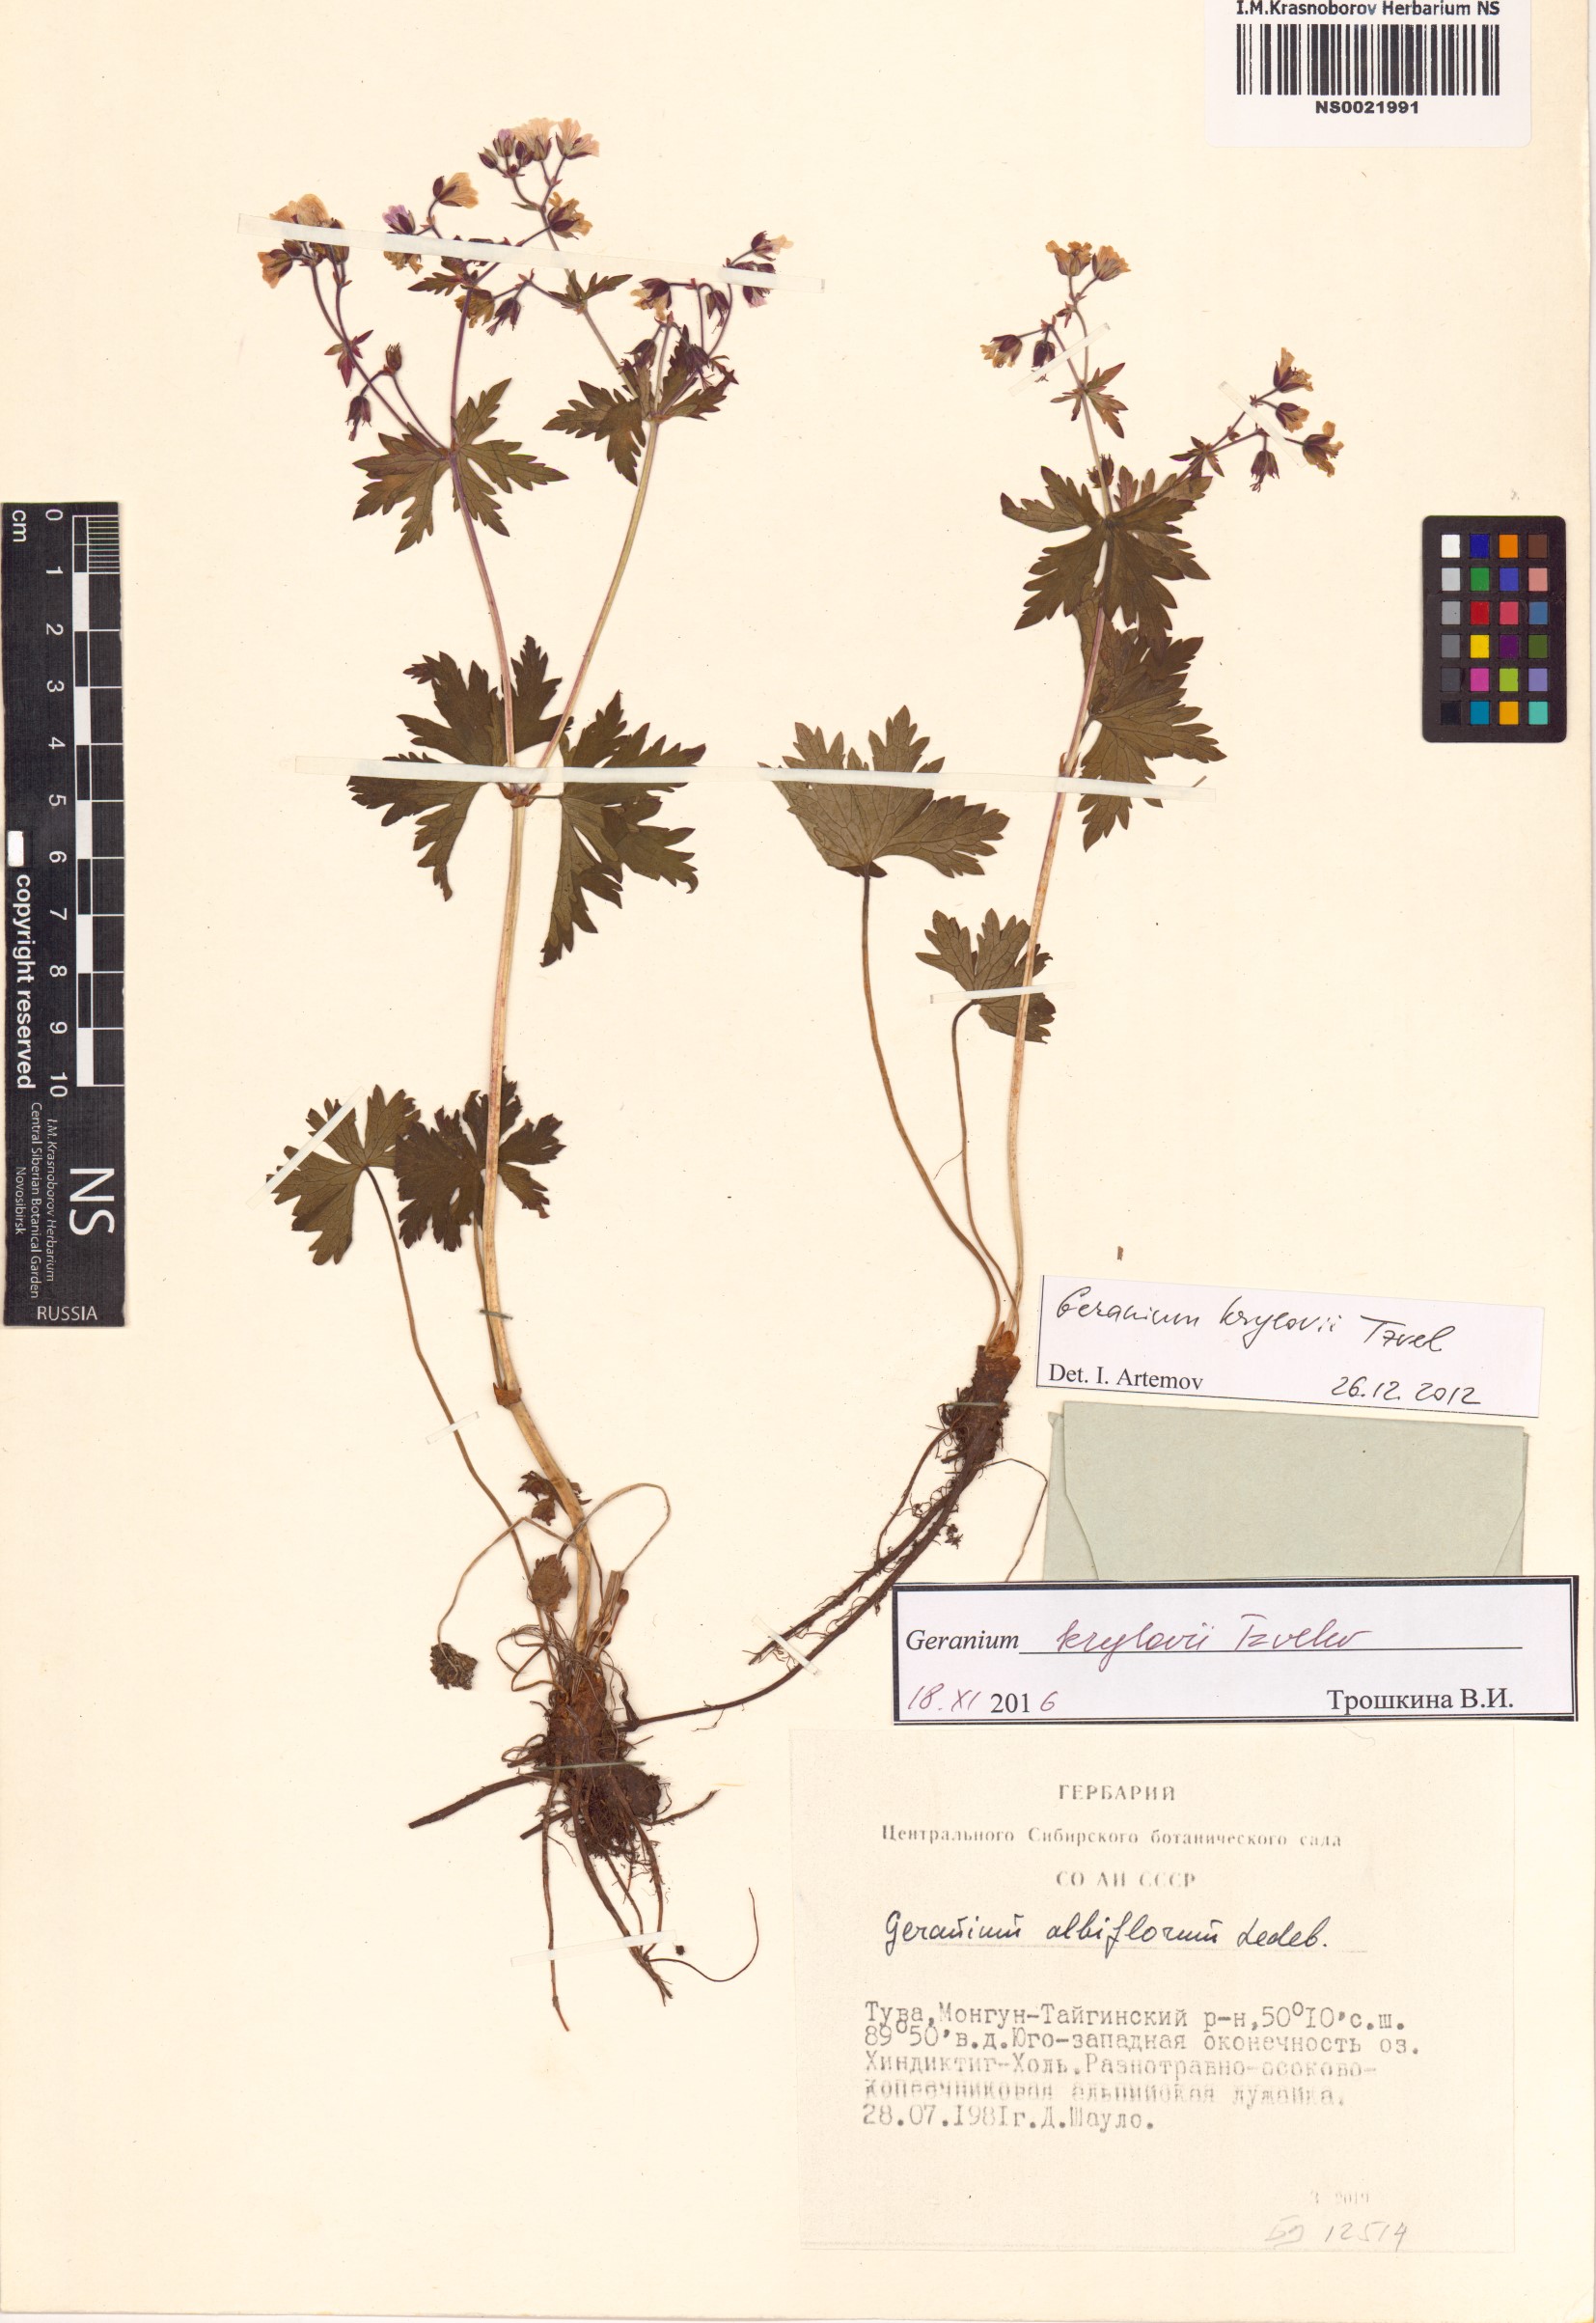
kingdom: Plantae
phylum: Tracheophyta
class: Magnoliopsida
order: Geraniales
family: Geraniaceae
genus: Geranium
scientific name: Geranium sylvaticum
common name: Wood crane's-bill
